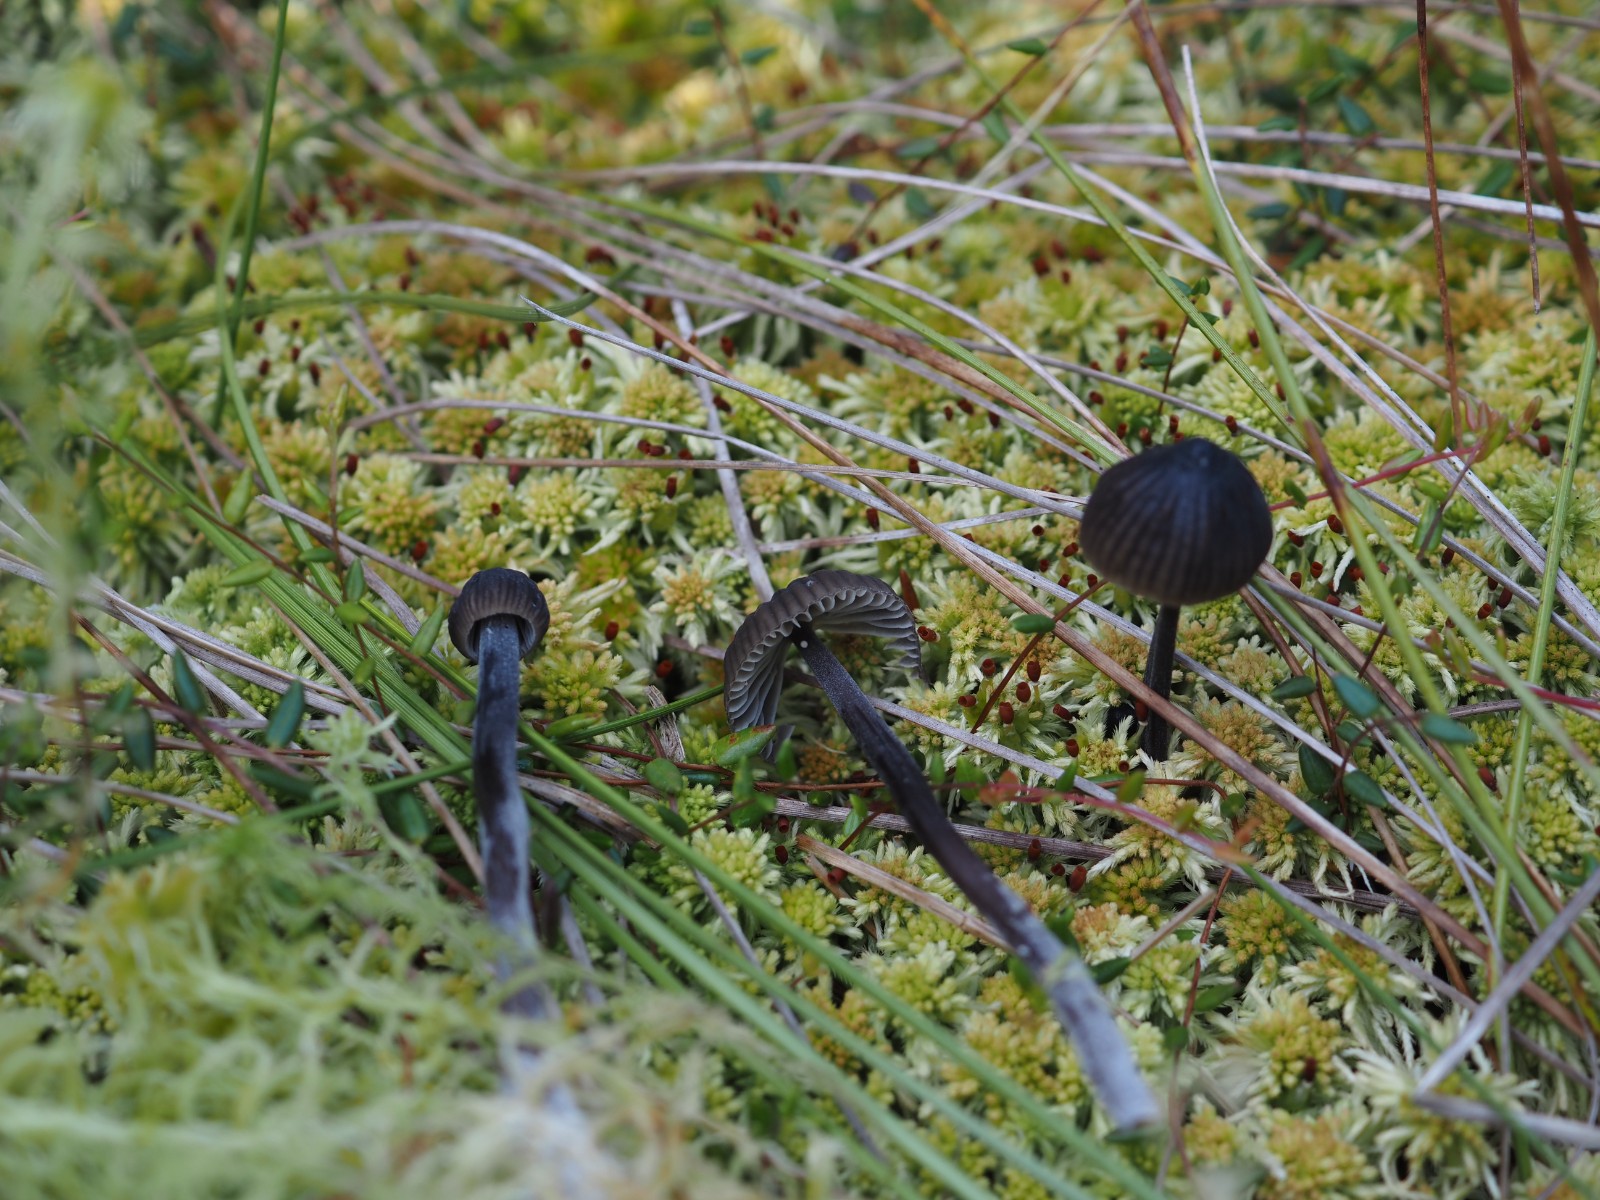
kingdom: Fungi
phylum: Basidiomycota
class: Agaricomycetes
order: Agaricales
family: Mycenaceae
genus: Mycena
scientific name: Mycena galopus
